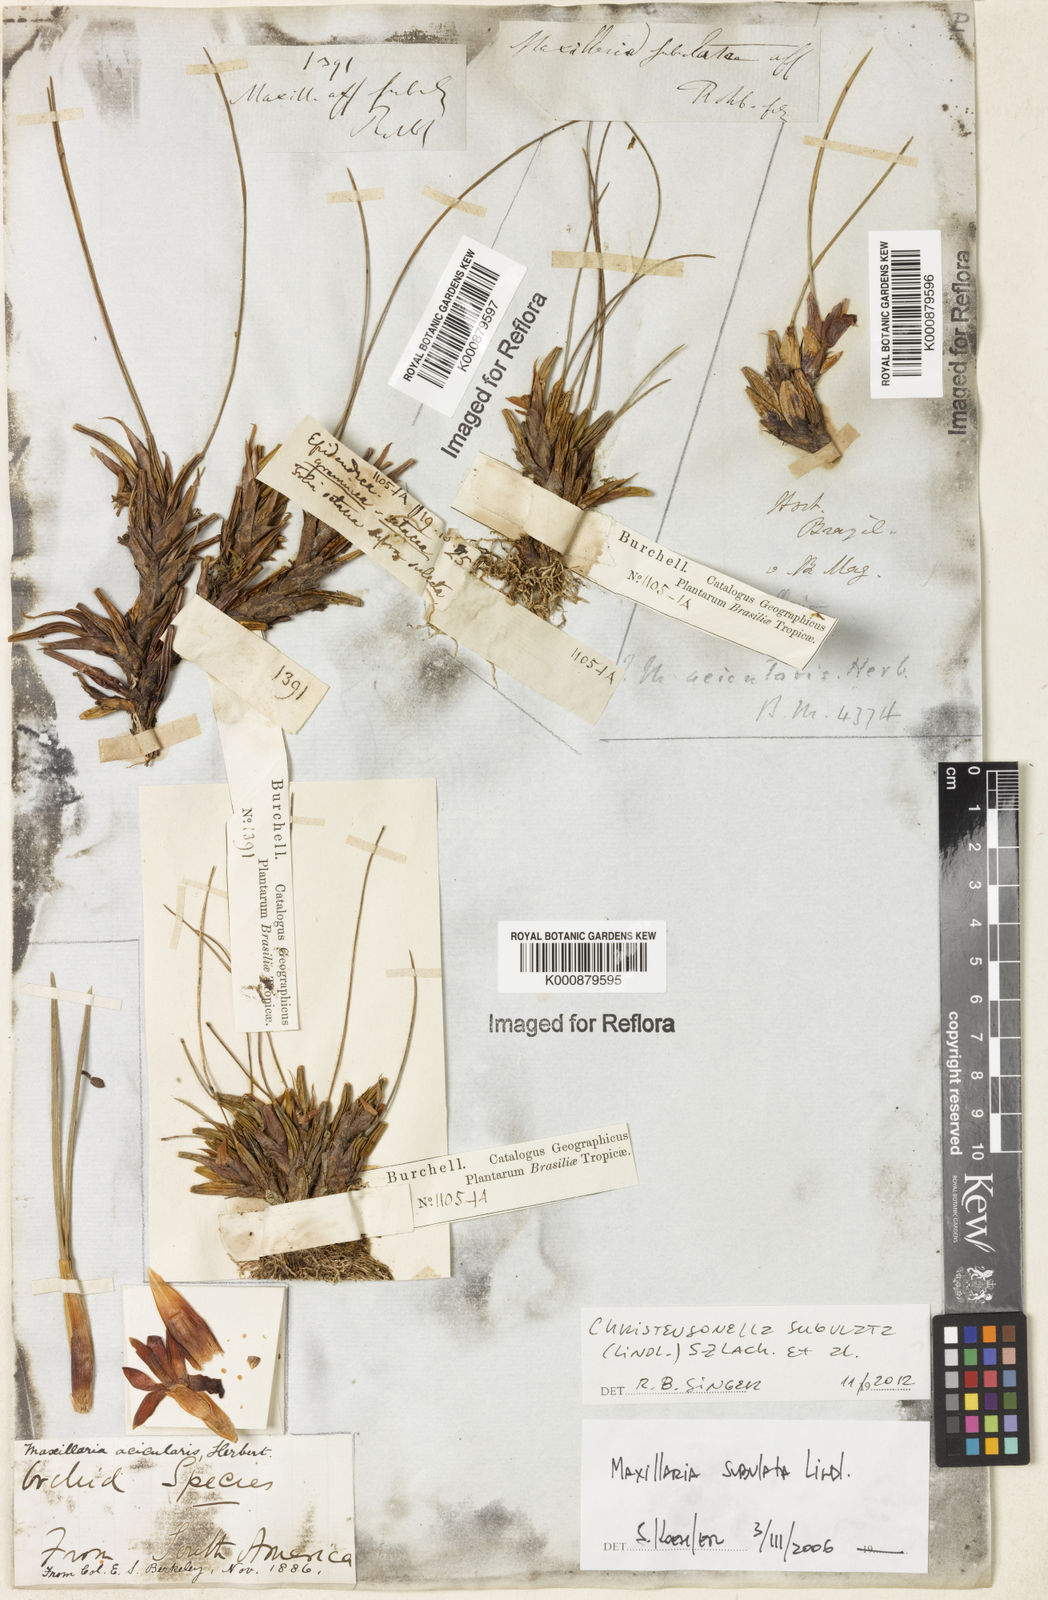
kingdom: Plantae
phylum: Tracheophyta
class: Liliopsida
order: Asparagales
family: Orchidaceae
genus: Maxillaria
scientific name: Maxillaria subulata
